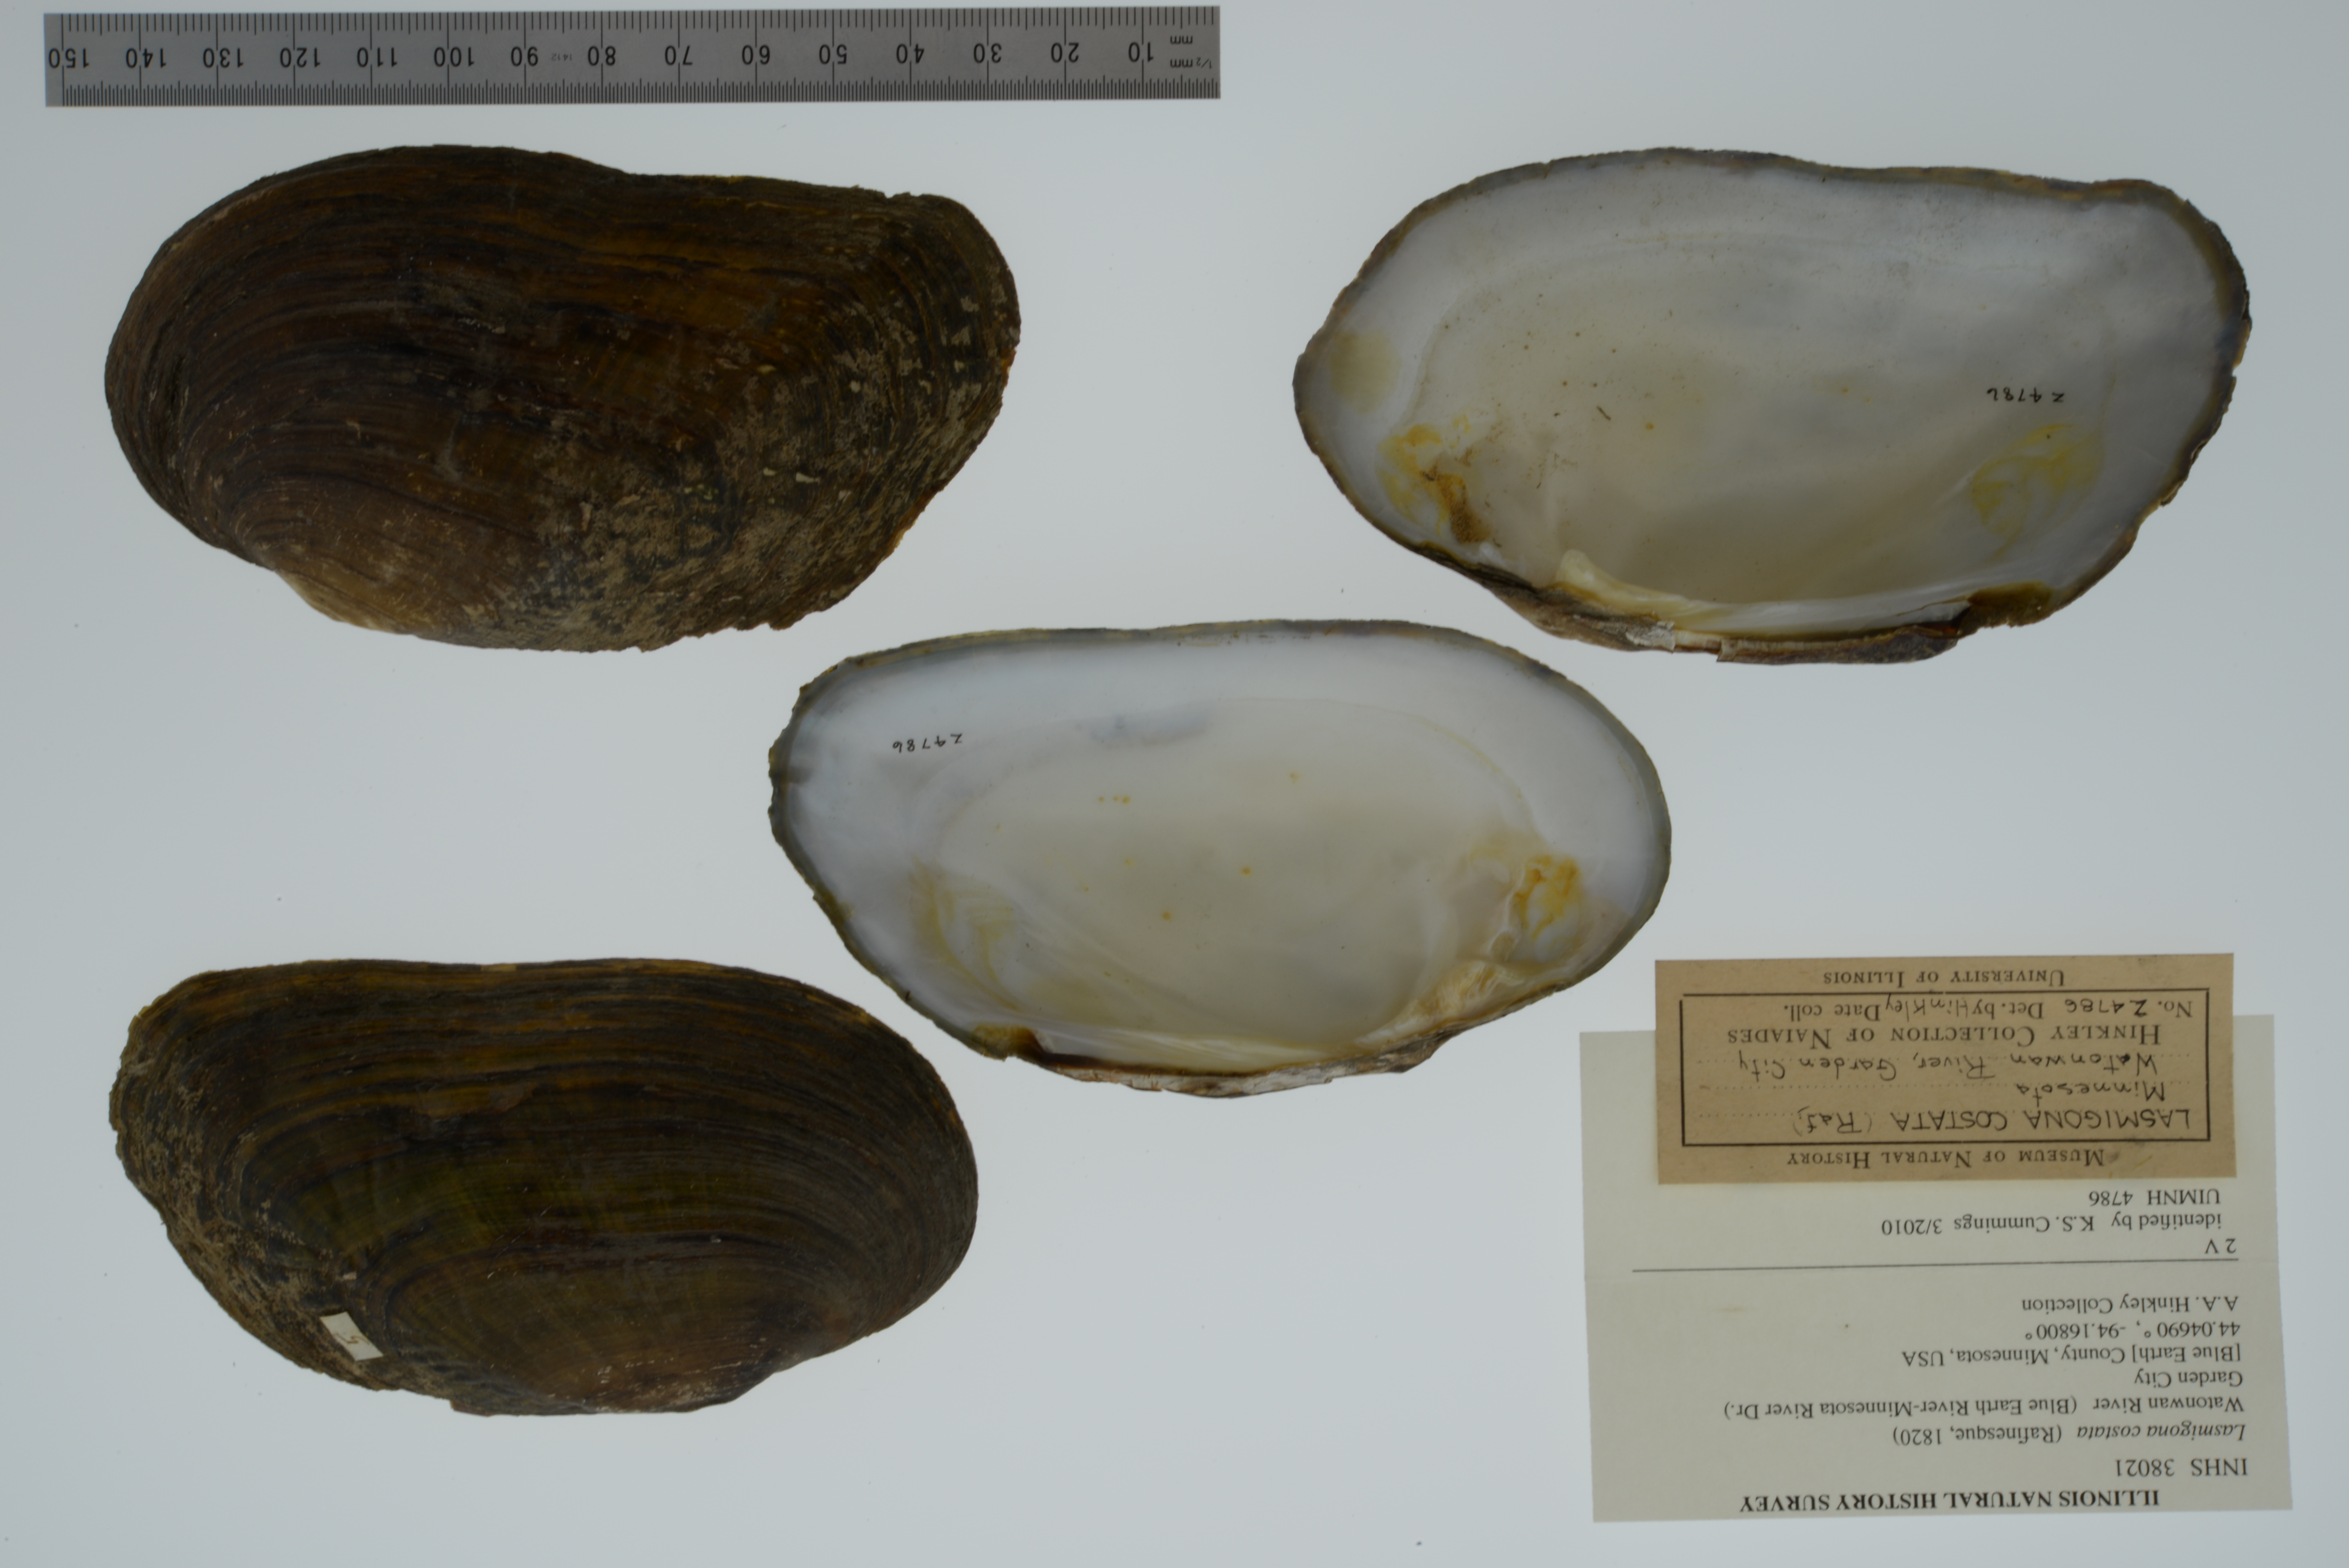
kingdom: Animalia
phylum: Mollusca
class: Bivalvia
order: Unionida
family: Unionidae
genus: Lasmigona
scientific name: Lasmigona costata
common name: Flutedshell
